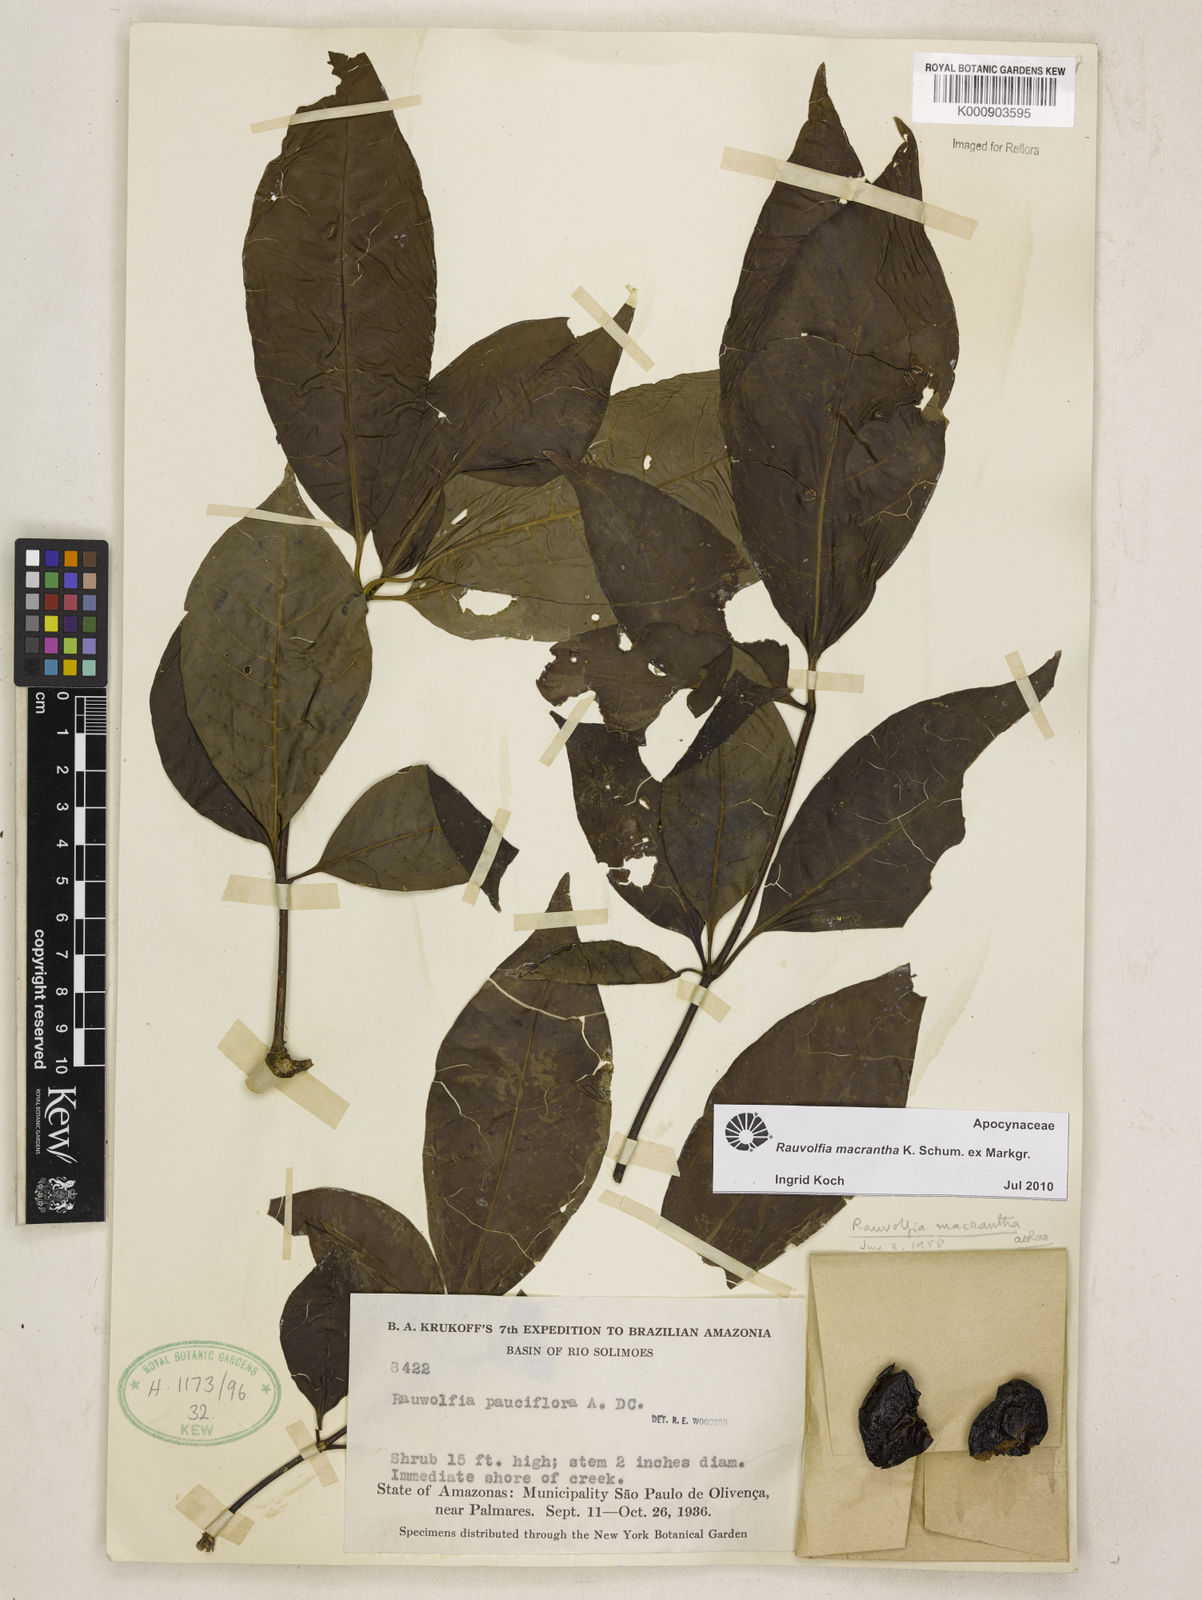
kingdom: Plantae
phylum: Tracheophyta
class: Magnoliopsida
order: Gentianales
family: Apocynaceae
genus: Rauvolfia
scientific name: Rauvolfia macrantha
